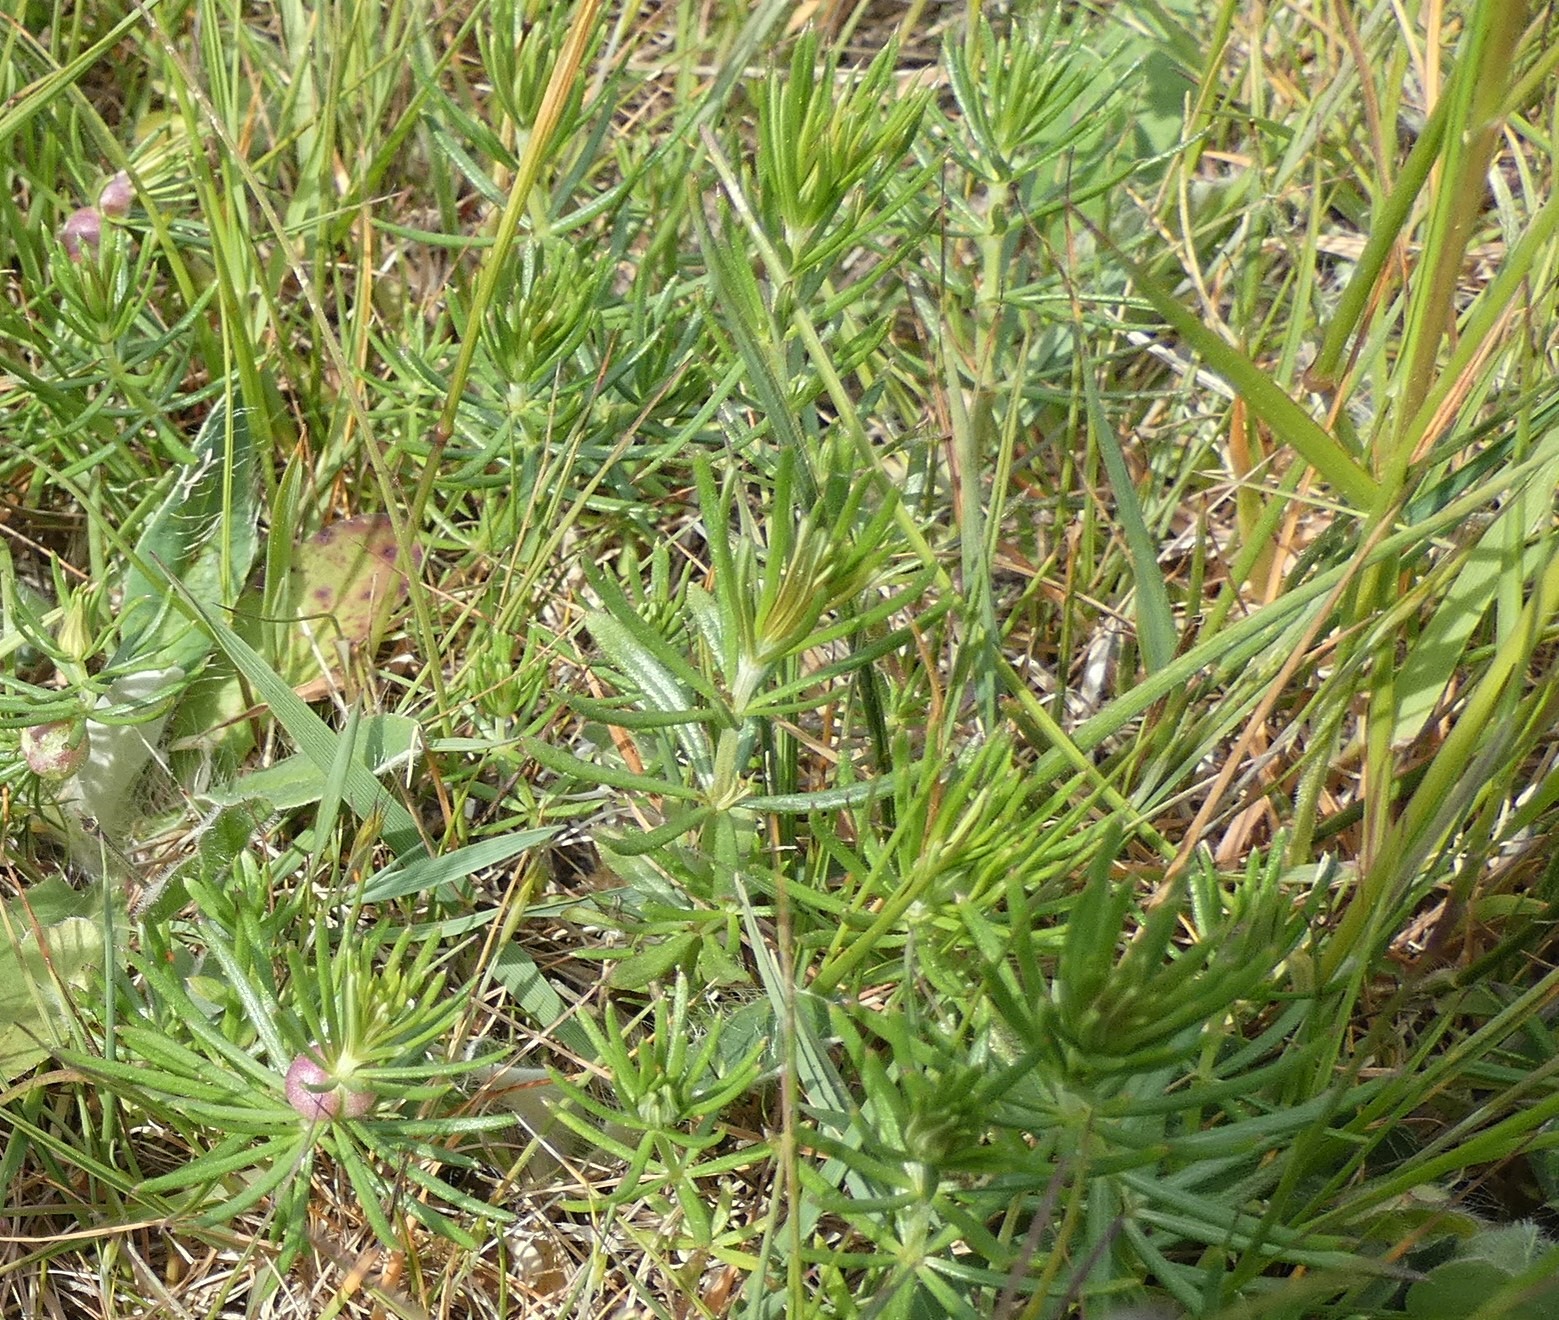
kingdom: Plantae
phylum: Tracheophyta
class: Magnoliopsida
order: Gentianales
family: Rubiaceae
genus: Galium
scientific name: Galium verum
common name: Gul snerre
